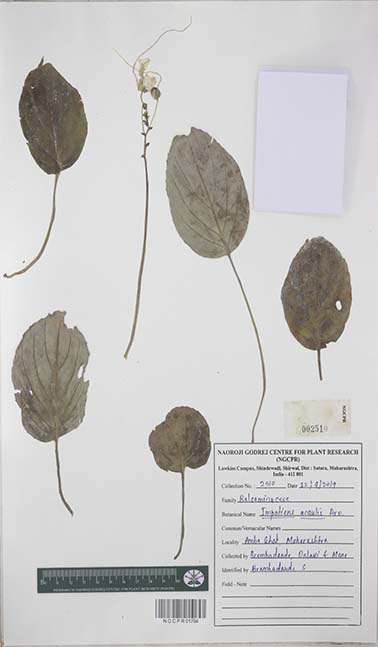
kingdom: Plantae
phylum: Tracheophyta
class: Magnoliopsida
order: Ericales
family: Balsaminaceae
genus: Impatiens
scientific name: Impatiens acaulis
